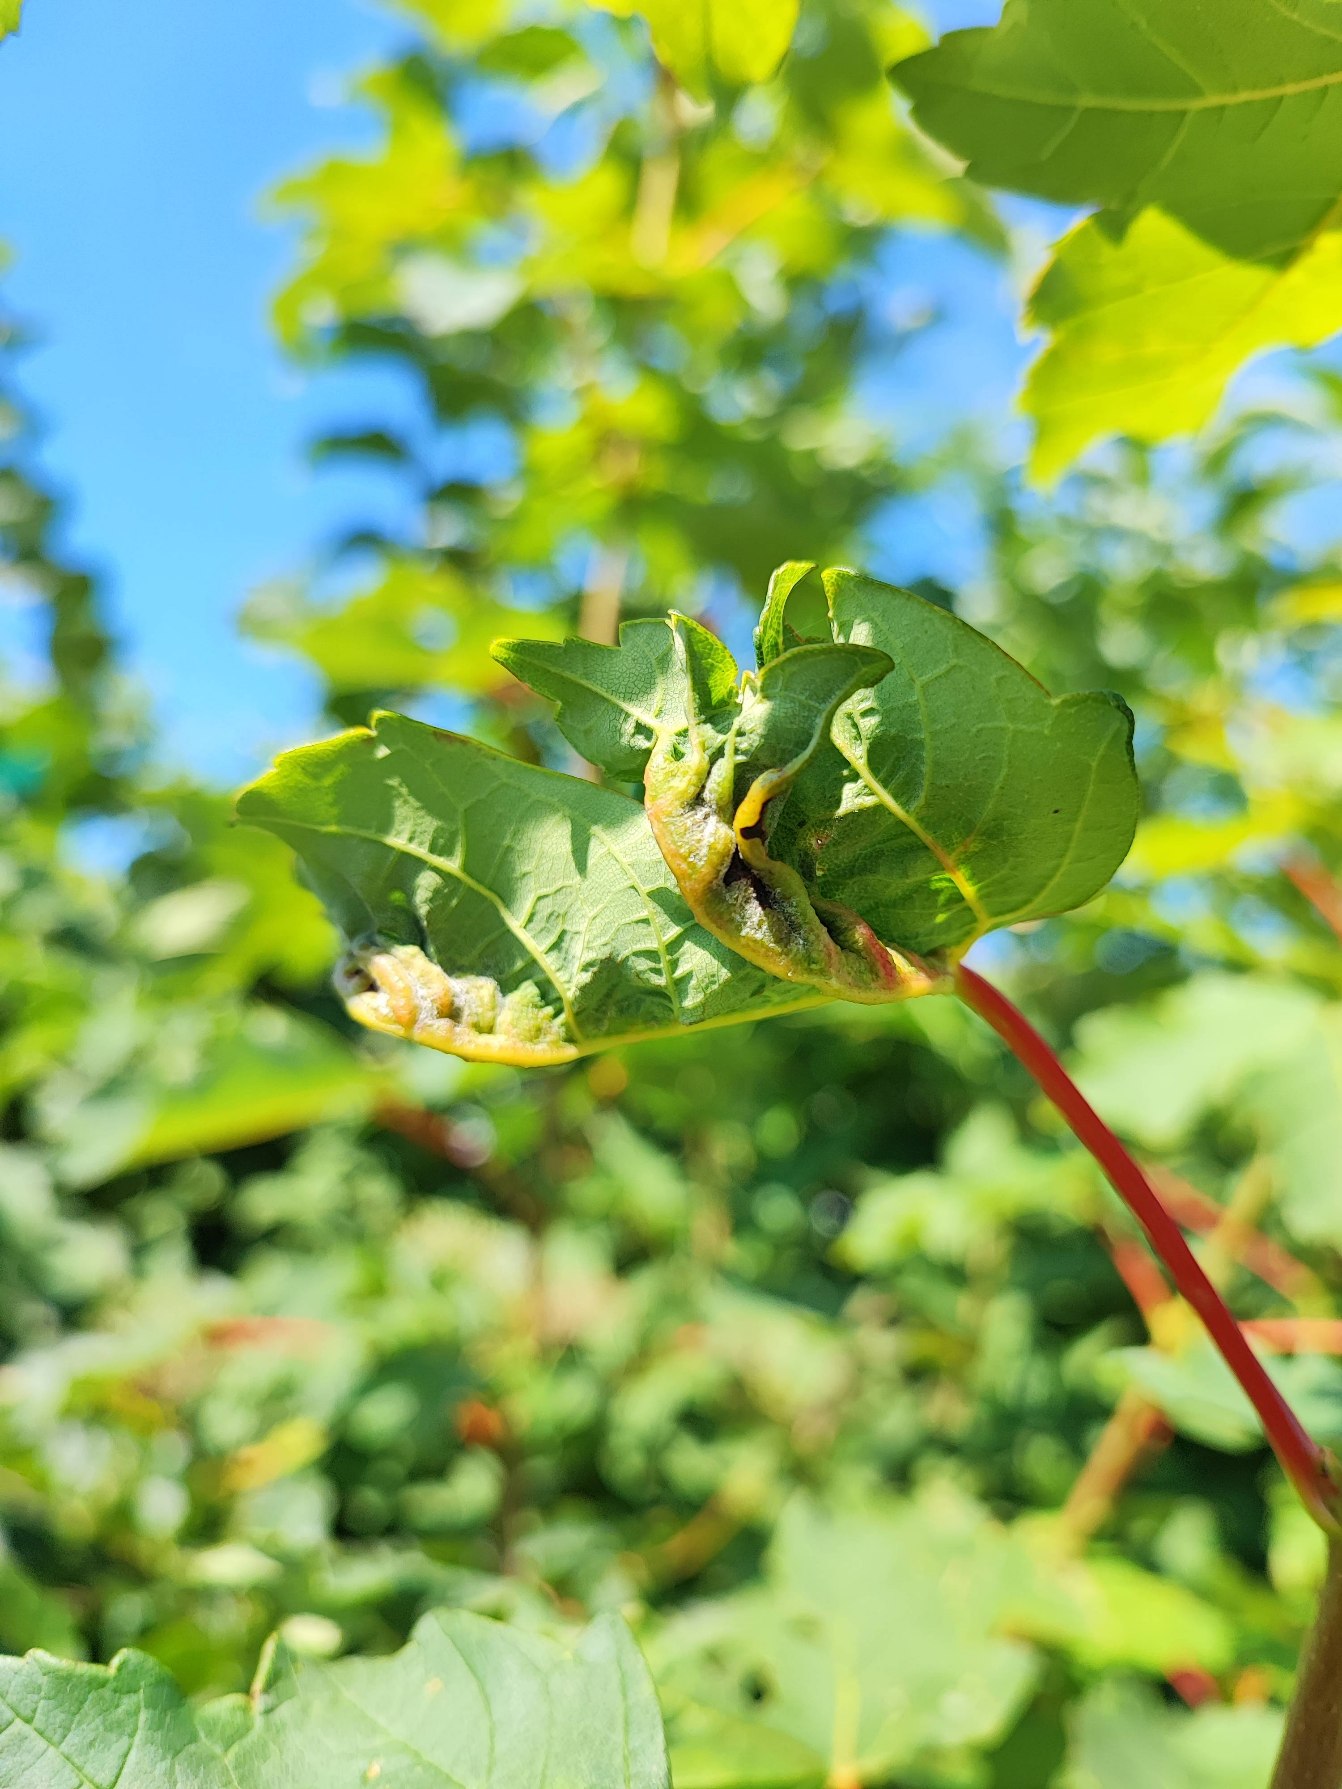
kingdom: Animalia
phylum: Arthropoda
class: Insecta
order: Diptera
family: Cecidomyiidae
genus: Dasineura
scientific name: Dasineura irregularis
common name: Ahornkrusegalmyg
